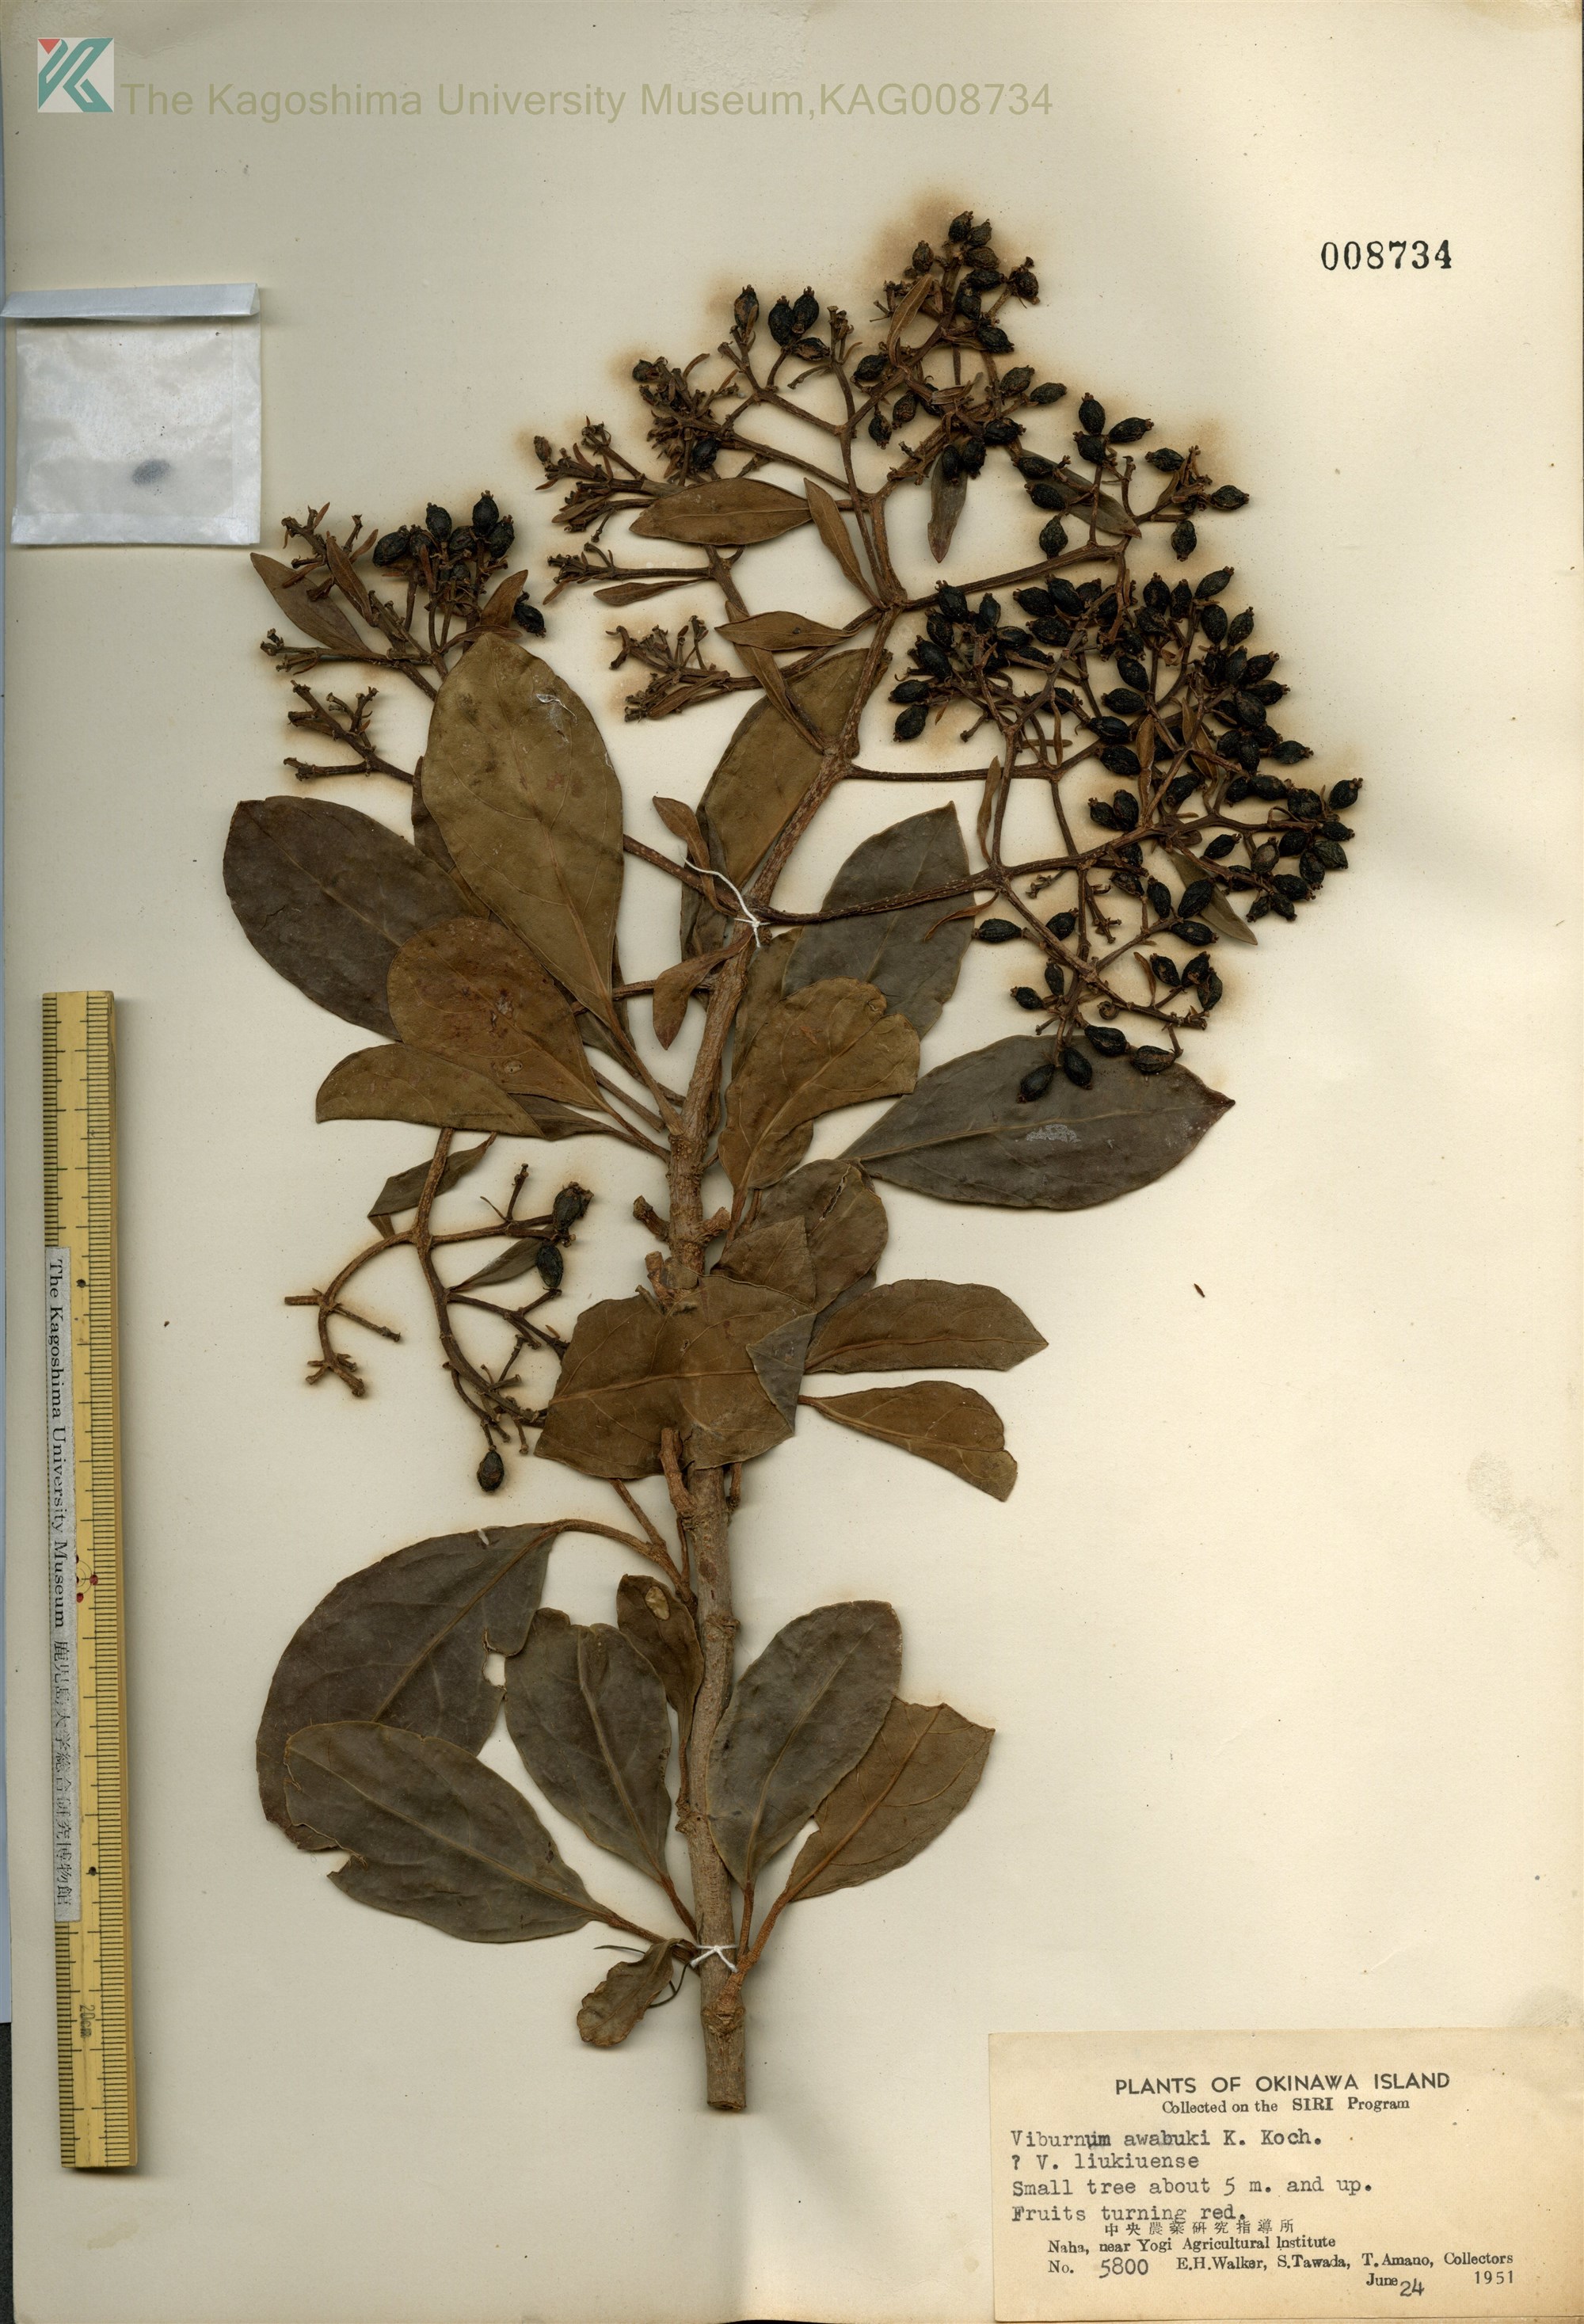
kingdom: Plantae
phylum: Tracheophyta
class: Magnoliopsida
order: Dipsacales
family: Viburnaceae
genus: Viburnum
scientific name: Viburnum odoratissimum
